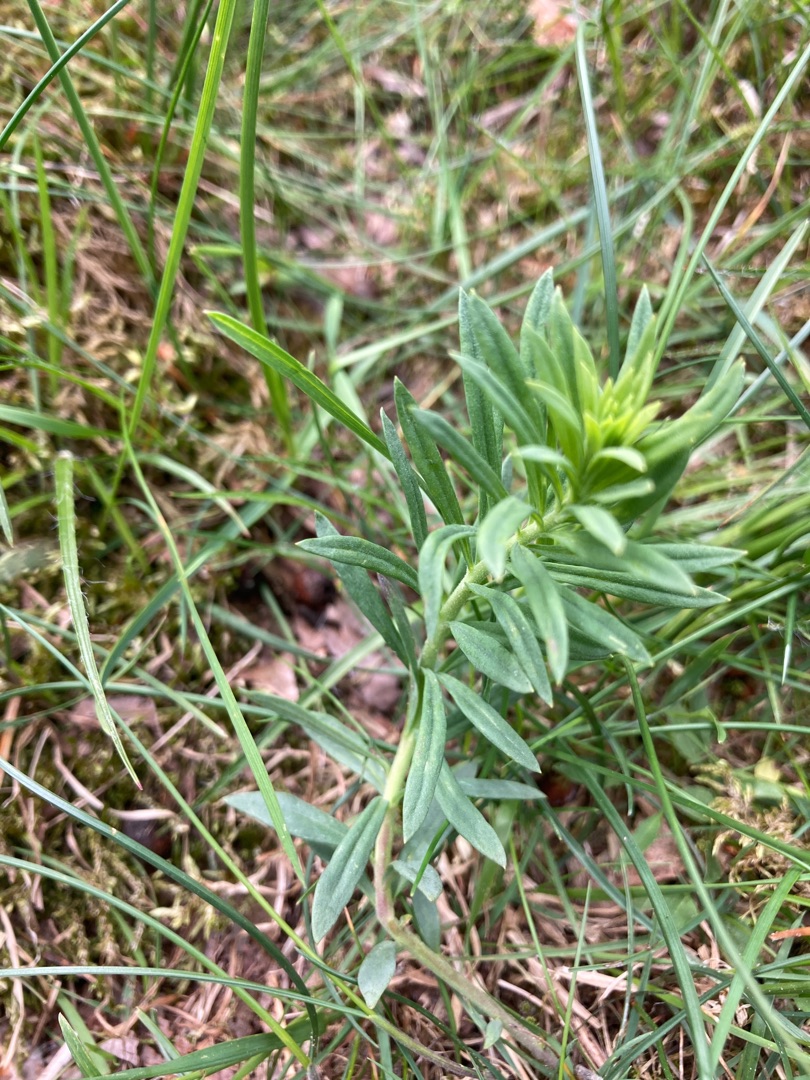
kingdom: Plantae
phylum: Tracheophyta
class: Magnoliopsida
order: Lamiales
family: Plantaginaceae
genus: Linaria
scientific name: Linaria vulgaris
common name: Almindelig torskemund
